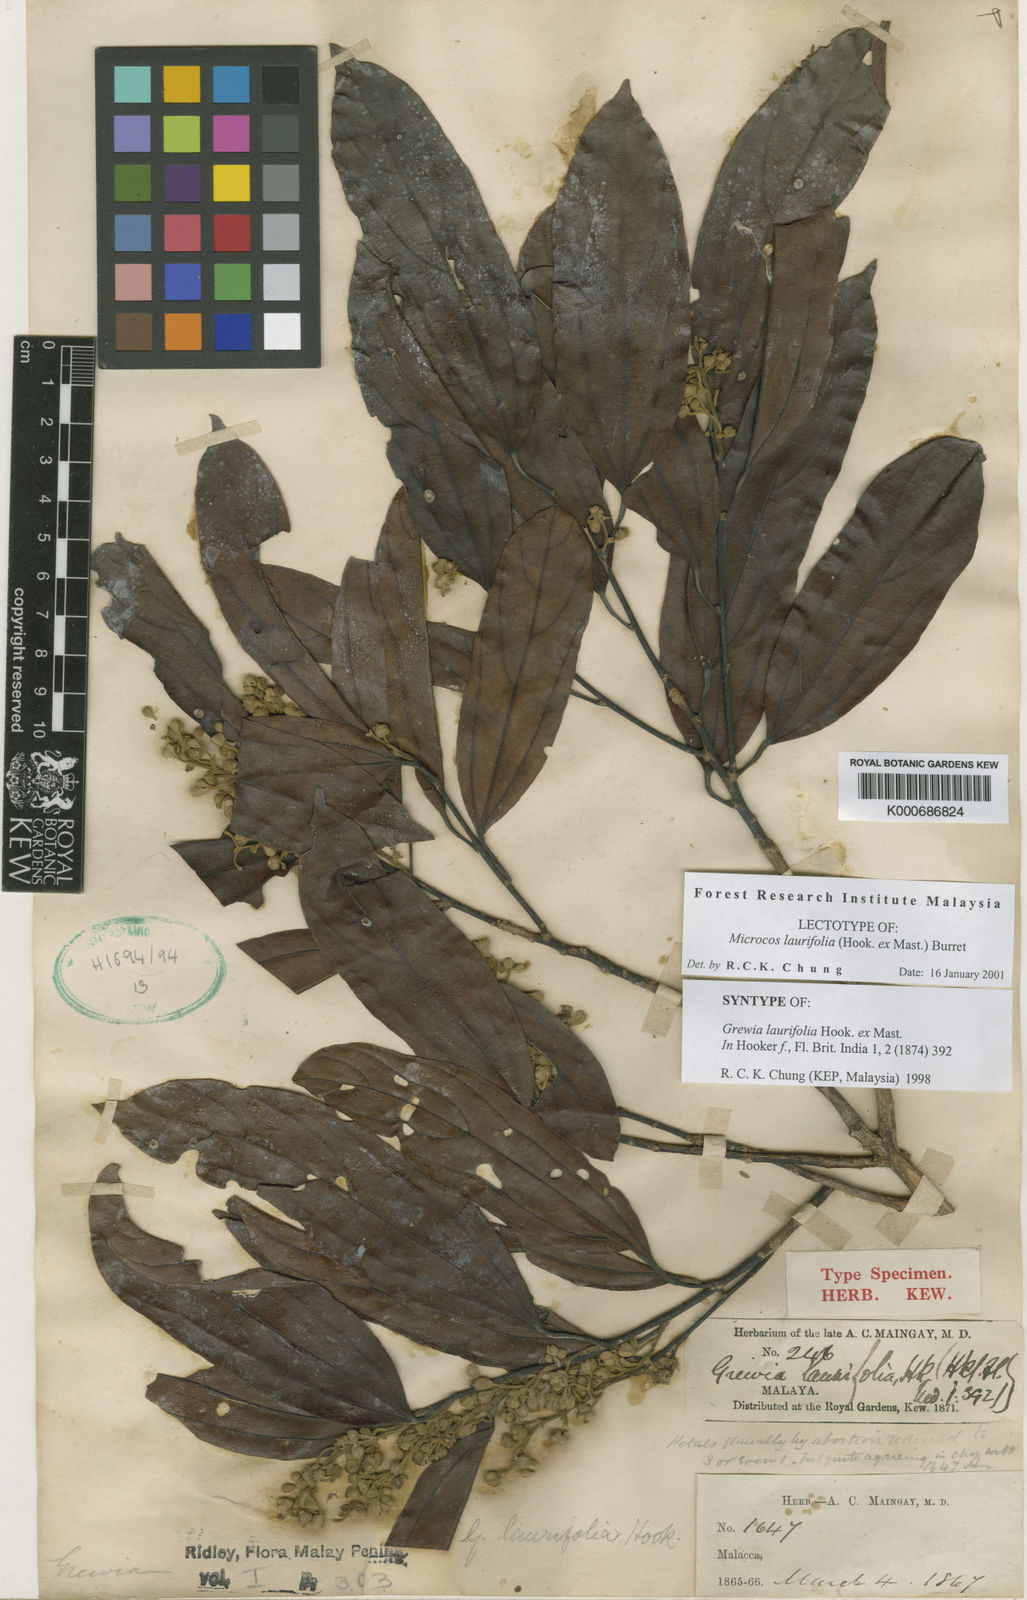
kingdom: Plantae
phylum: Tracheophyta
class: Magnoliopsida
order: Malvales
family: Malvaceae
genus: Microcos
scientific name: Microcos laurifolia
